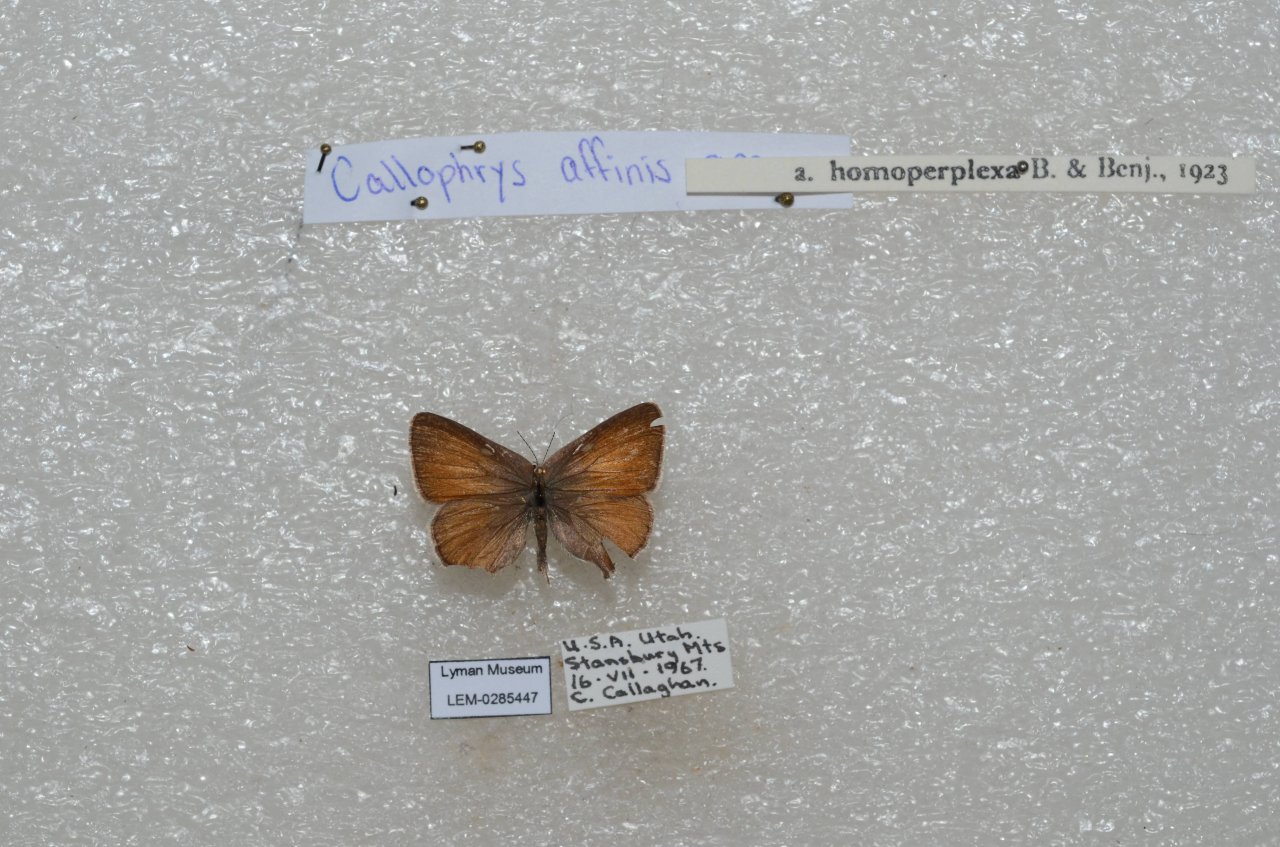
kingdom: Animalia
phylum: Arthropoda
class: Insecta
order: Lepidoptera
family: Lycaenidae
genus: Callophrys
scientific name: Callophrys affinis
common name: Western Green Hairstreak
